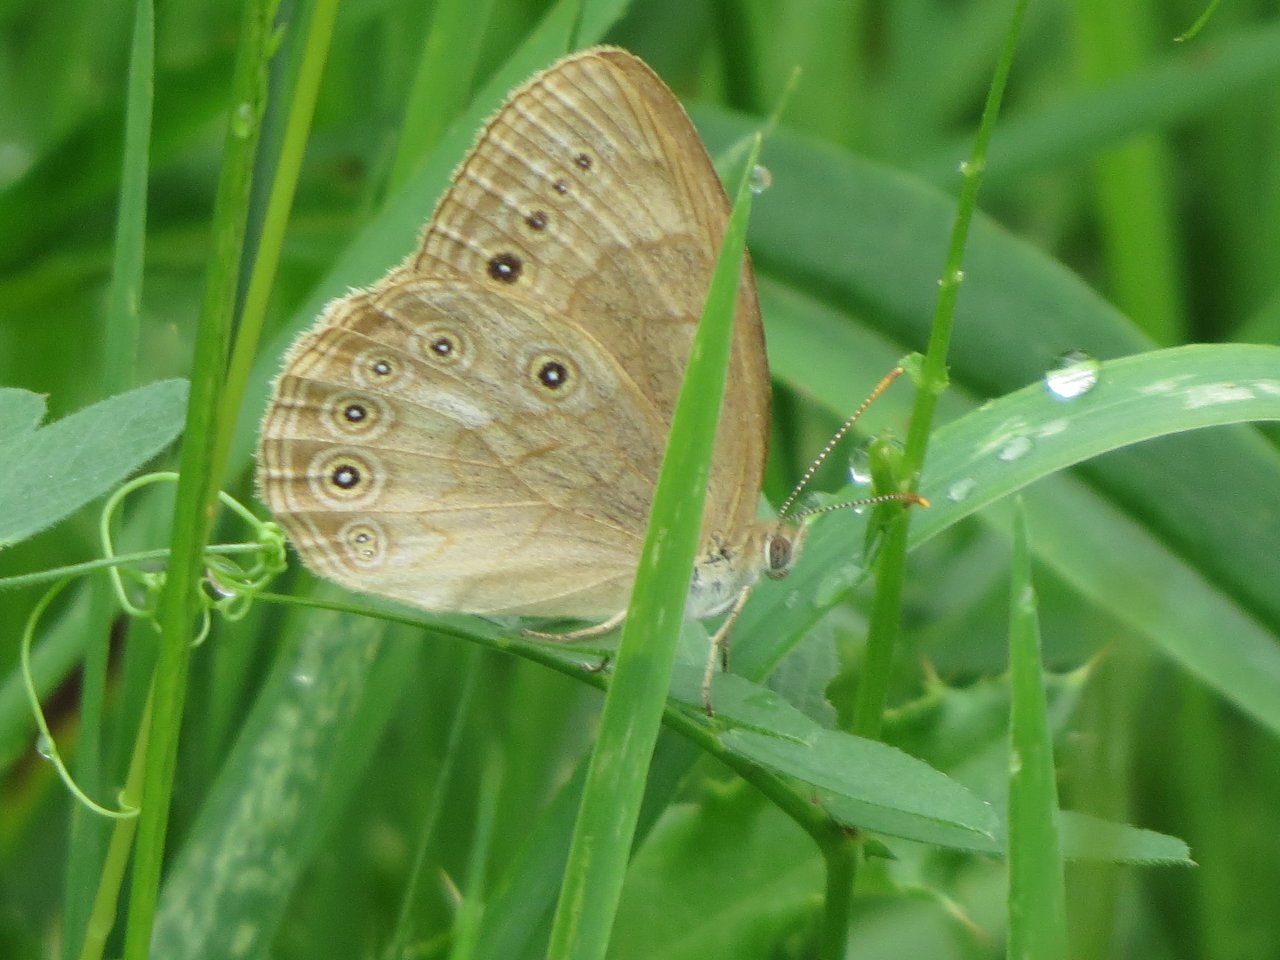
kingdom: Animalia
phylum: Arthropoda
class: Insecta
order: Lepidoptera
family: Nymphalidae
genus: Lethe
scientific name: Lethe eurydice
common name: Eyed Brown
